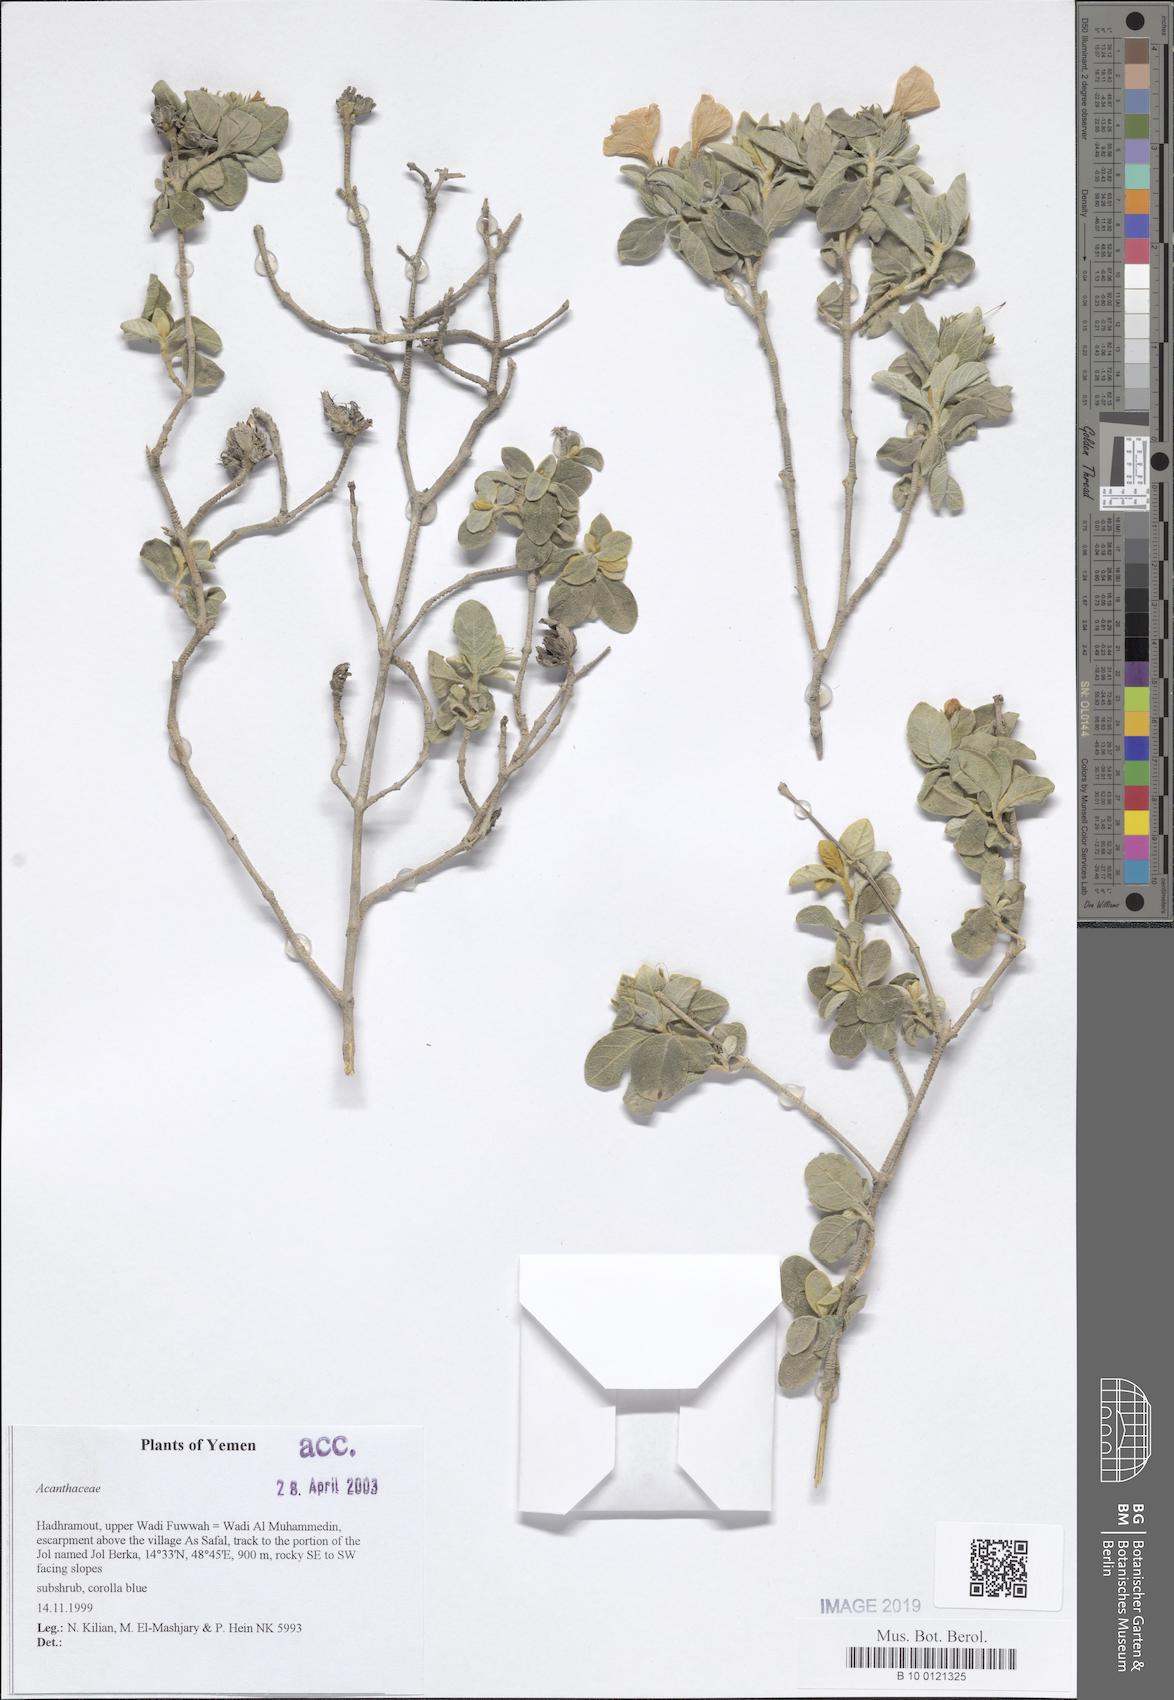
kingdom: Plantae
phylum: Tracheophyta
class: Magnoliopsida
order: Lamiales
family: Acanthaceae
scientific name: Acanthaceae
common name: Acanthaceae
